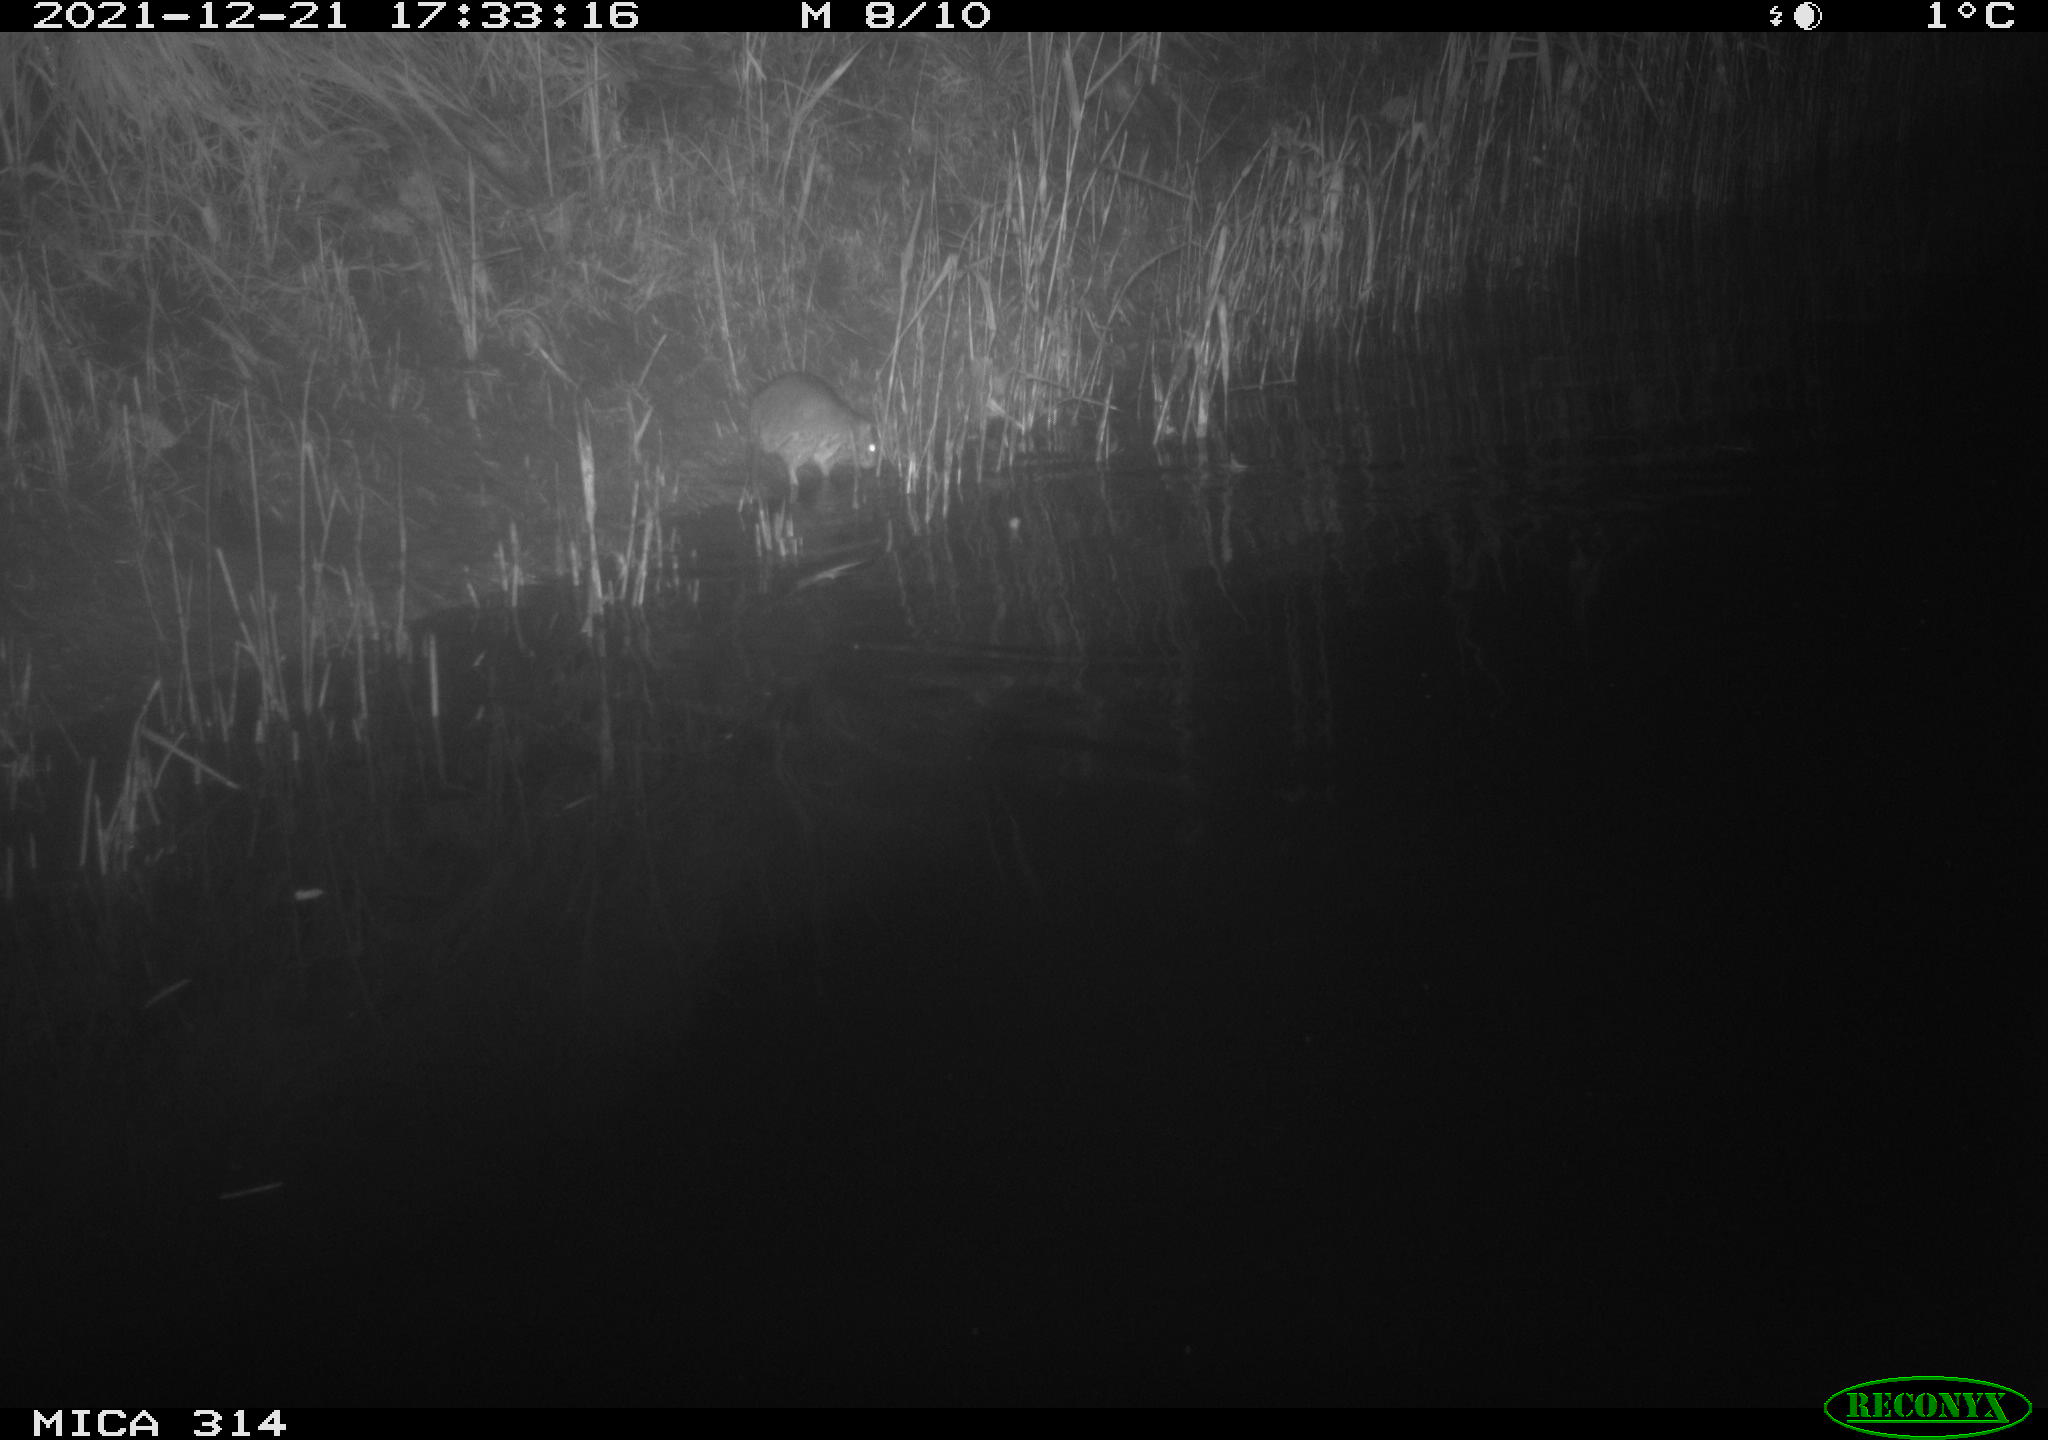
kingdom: Animalia
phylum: Chordata
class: Mammalia
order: Rodentia
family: Muridae
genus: Rattus
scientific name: Rattus norvegicus
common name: Brown rat
